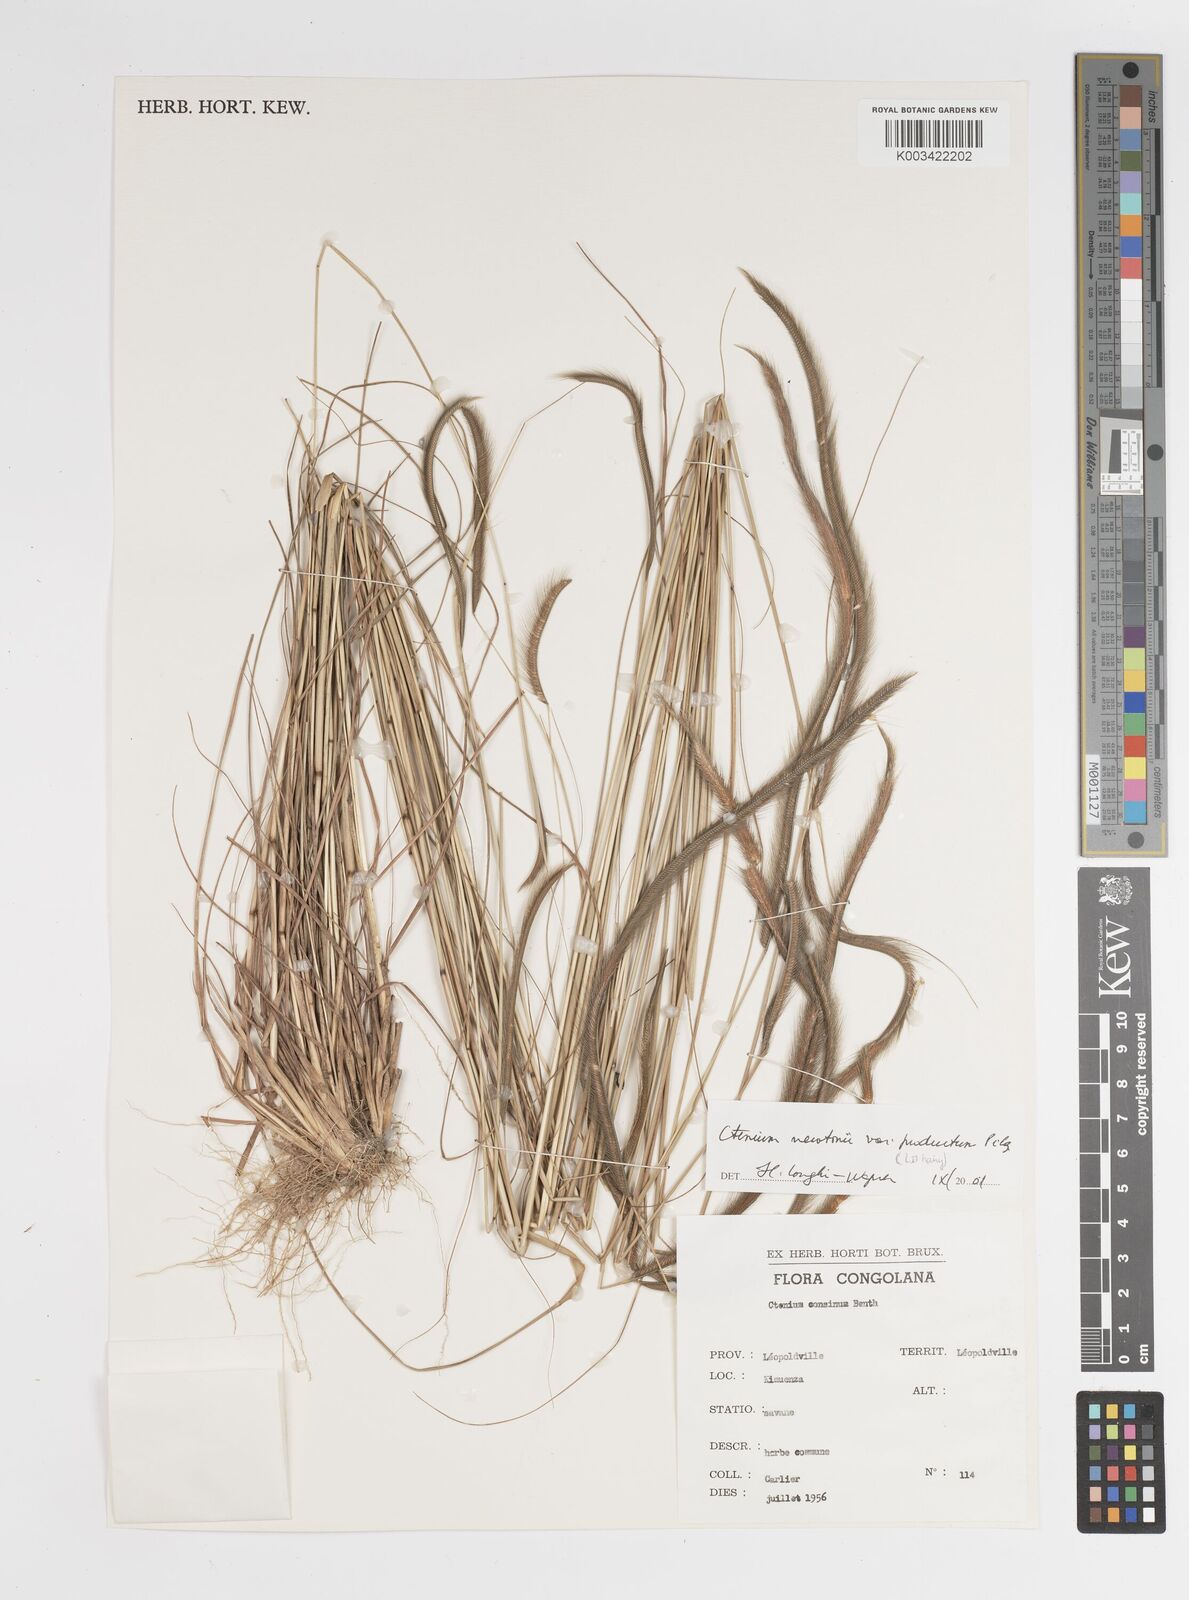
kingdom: Plantae
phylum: Tracheophyta
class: Liliopsida
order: Poales
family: Poaceae
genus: Ctenium
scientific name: Ctenium newtonii
